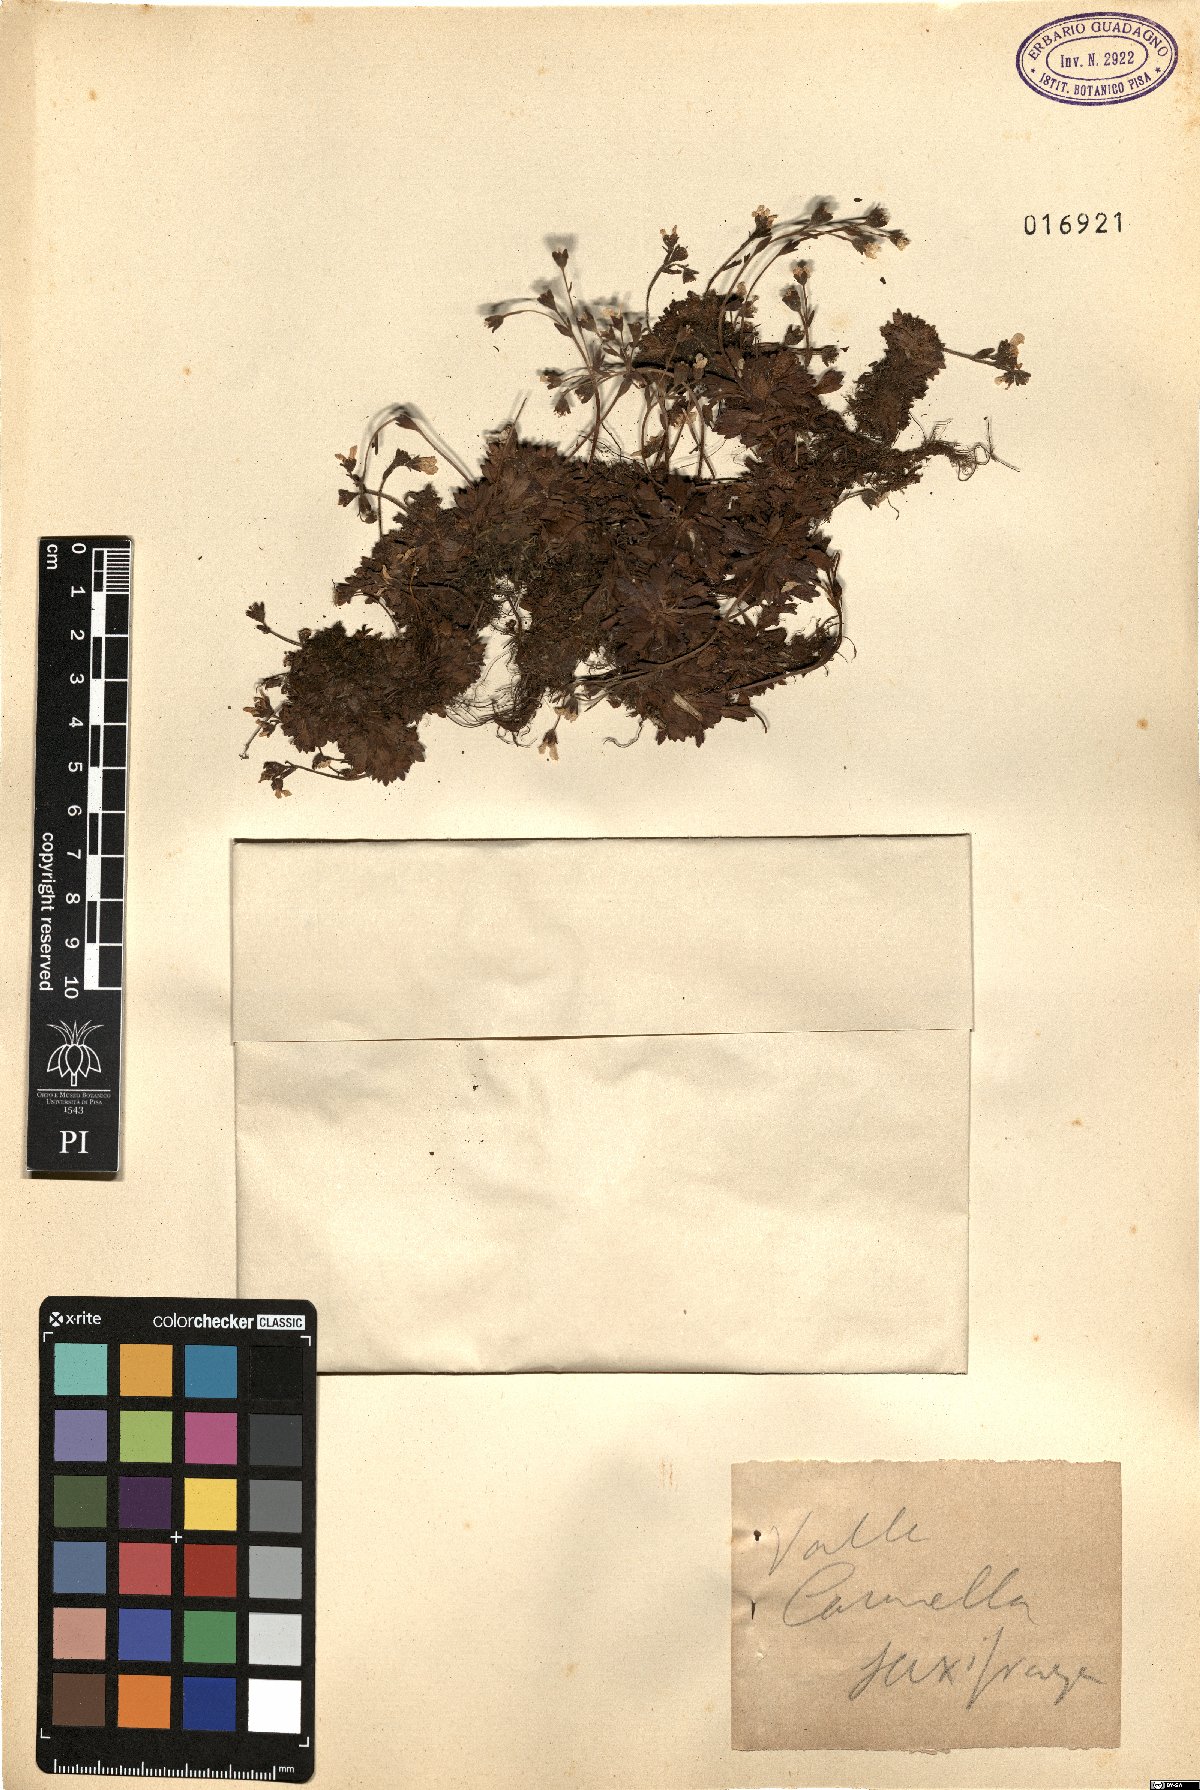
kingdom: Plantae
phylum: Tracheophyta
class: Magnoliopsida
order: Saxifragales
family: Saxifragaceae
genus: Saxifraga
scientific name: Saxifraga
